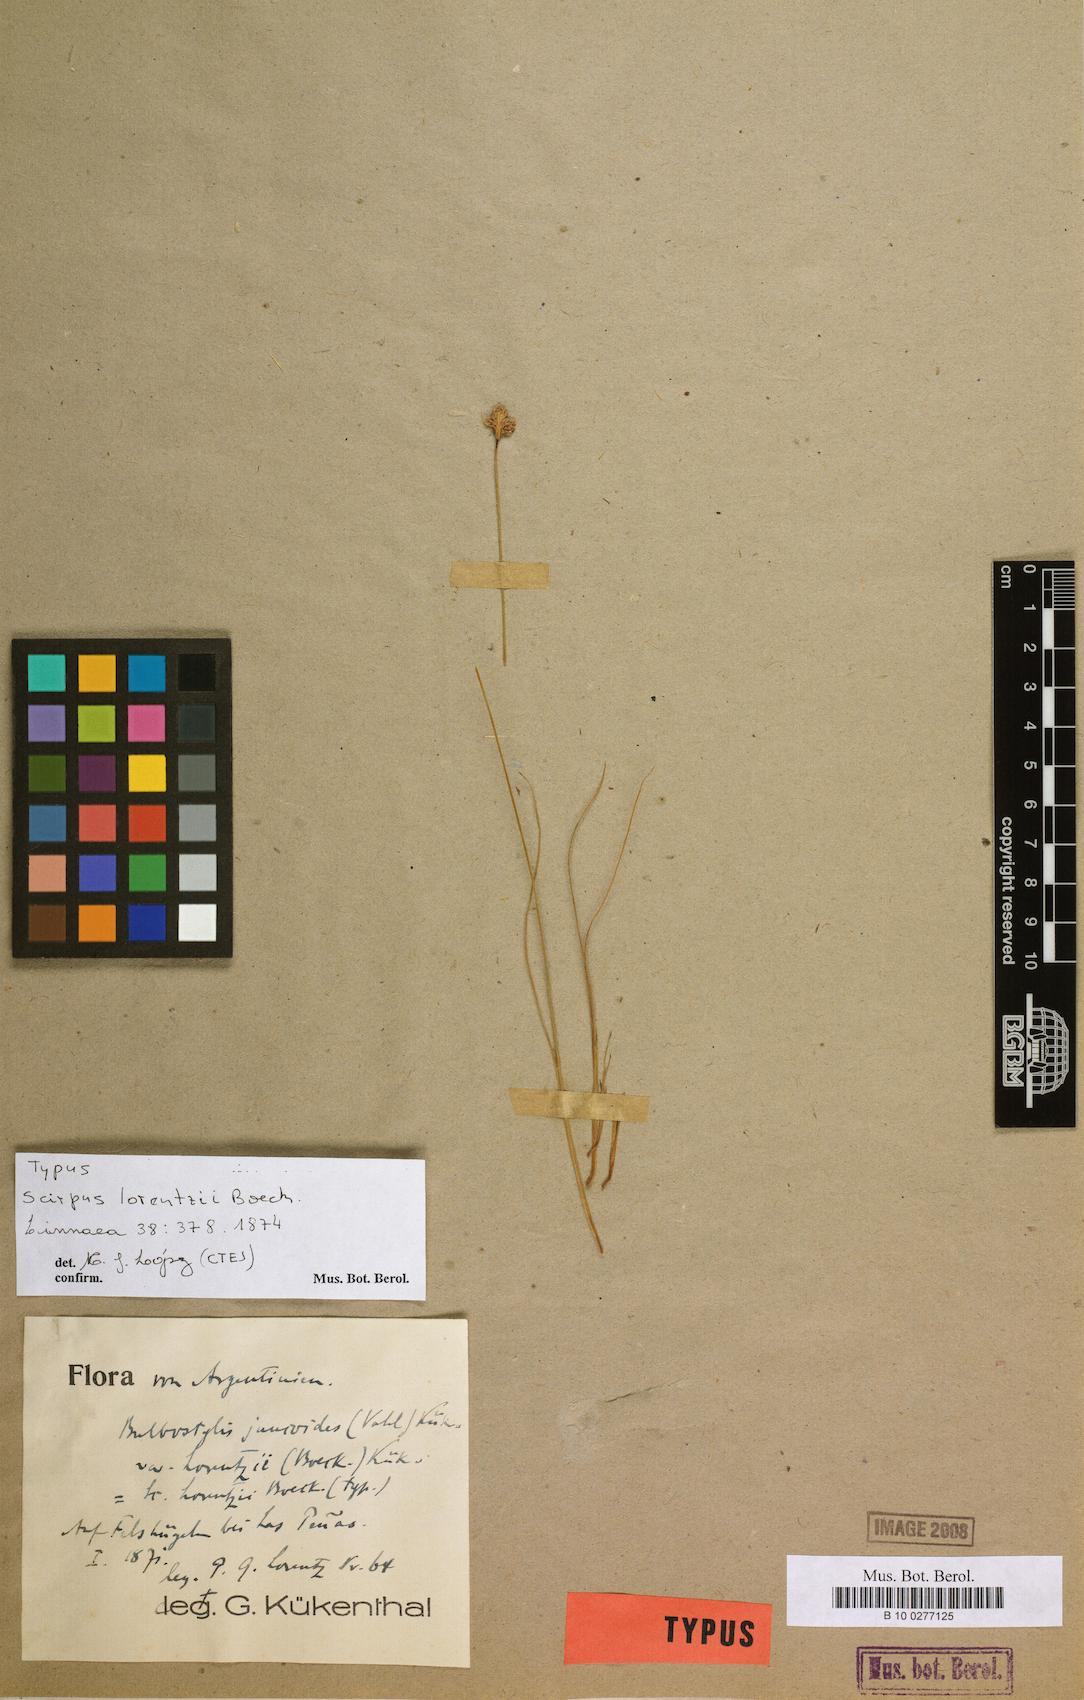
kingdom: Plantae
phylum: Tracheophyta
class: Liliopsida
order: Poales
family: Cyperaceae
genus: Bulbostylis
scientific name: Bulbostylis juncoides
